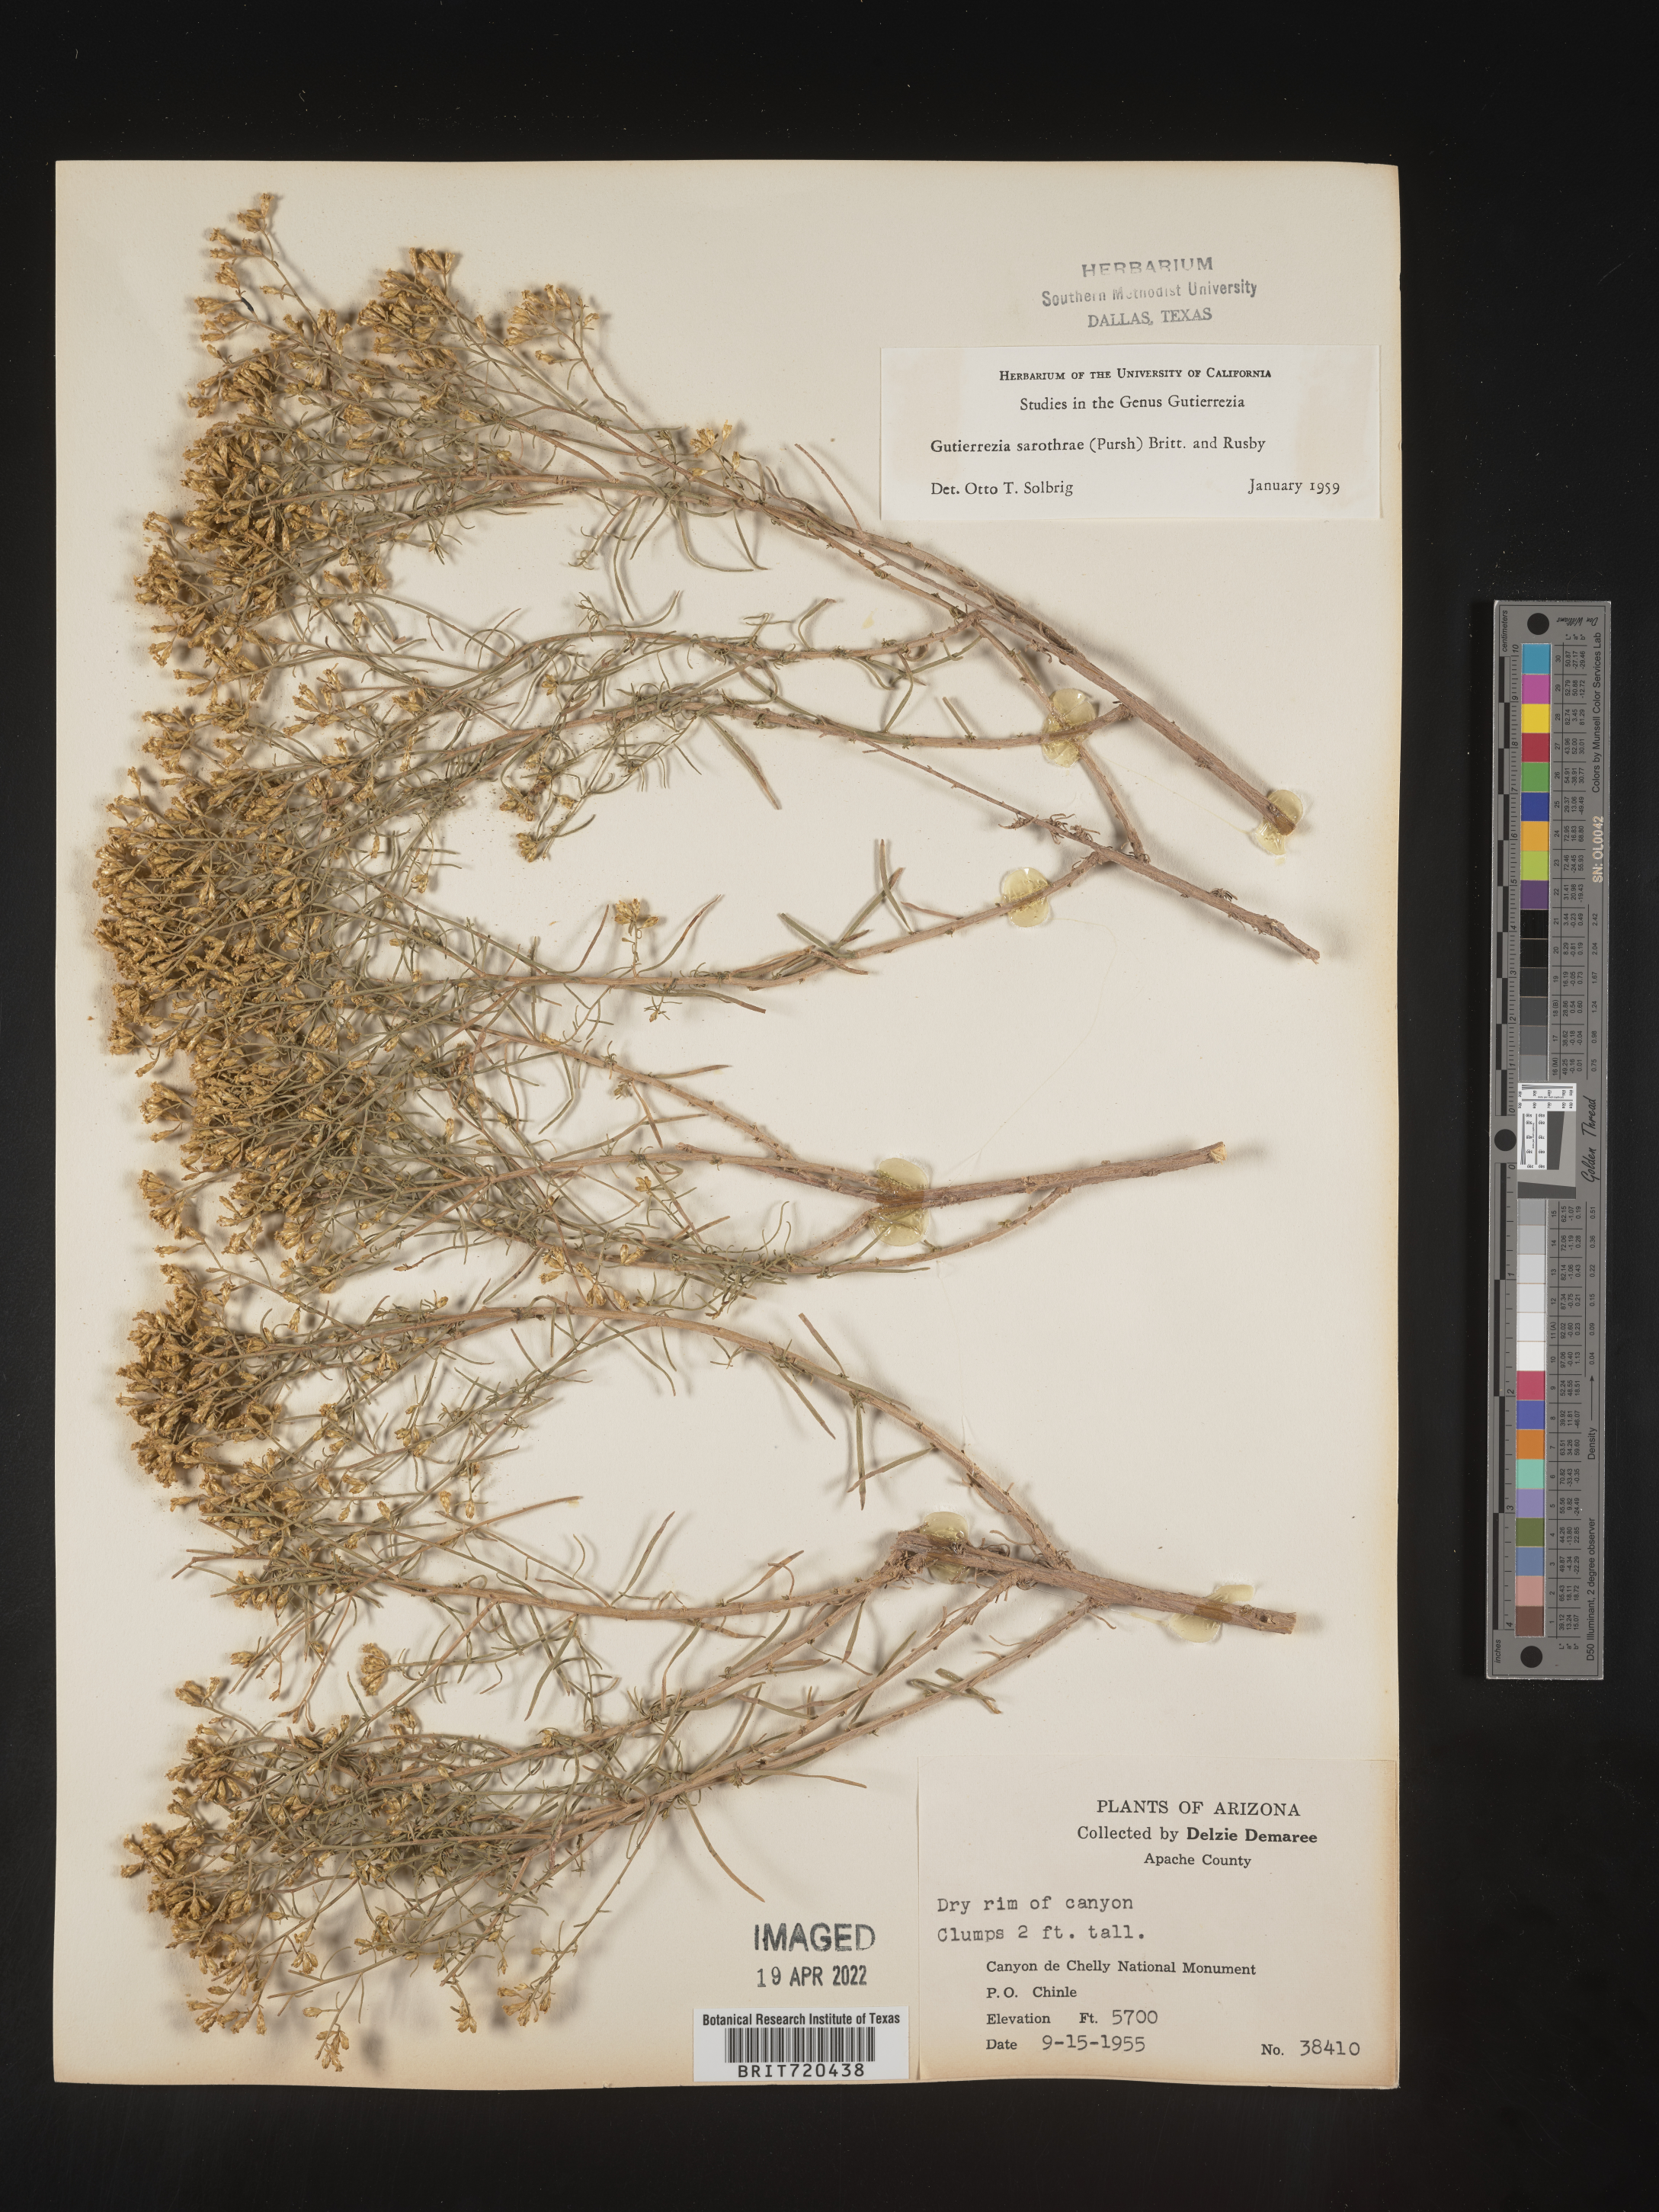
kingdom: Plantae
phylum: Tracheophyta
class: Magnoliopsida
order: Asterales
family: Asteraceae
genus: Gutierrezia
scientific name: Gutierrezia sarothrae
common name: Broom snakeweed
